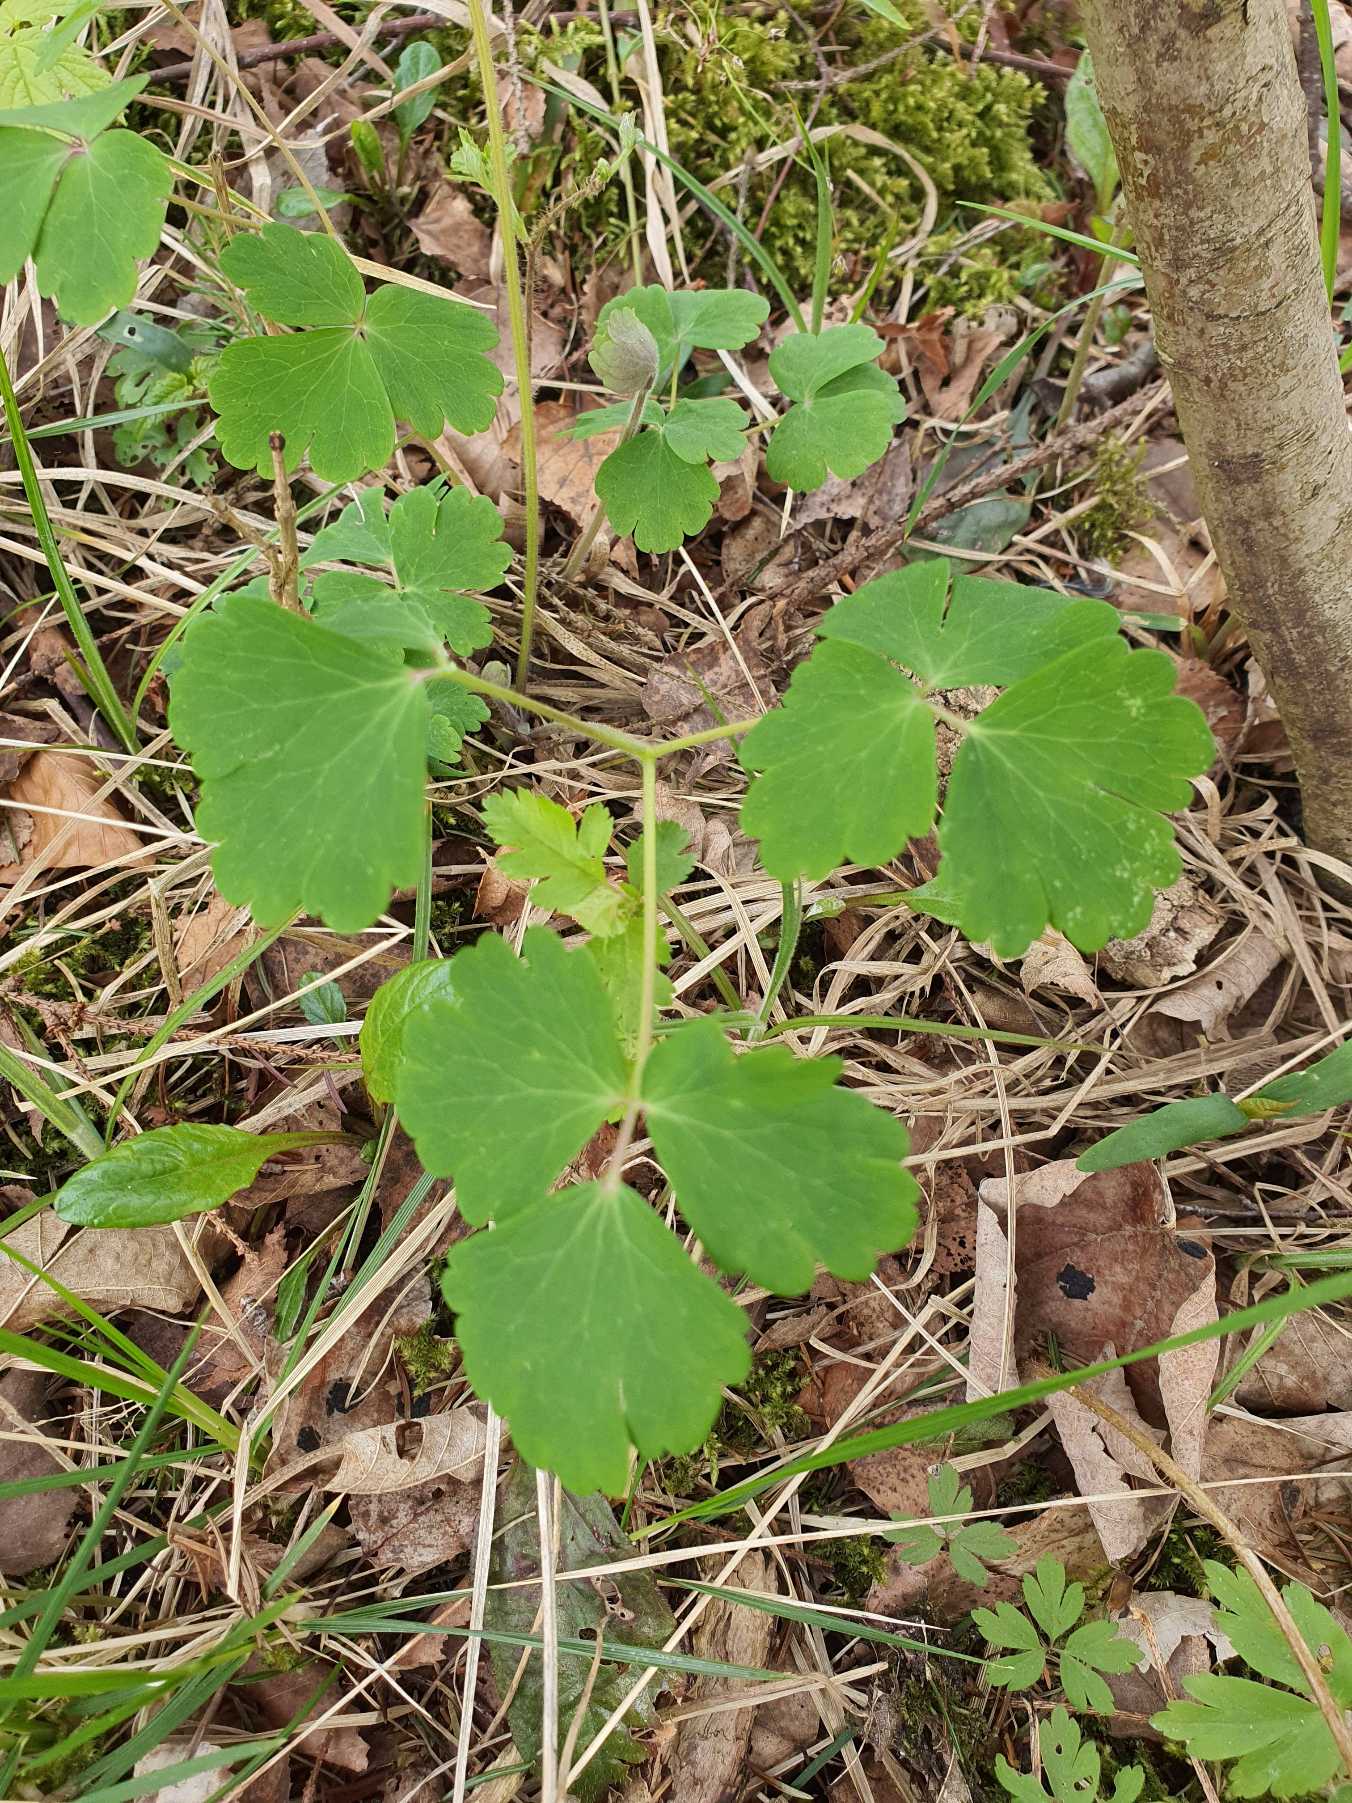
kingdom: Plantae
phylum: Tracheophyta
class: Magnoliopsida
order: Ranunculales
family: Ranunculaceae
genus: Aquilegia
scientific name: Aquilegia vulgaris
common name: Akeleje
